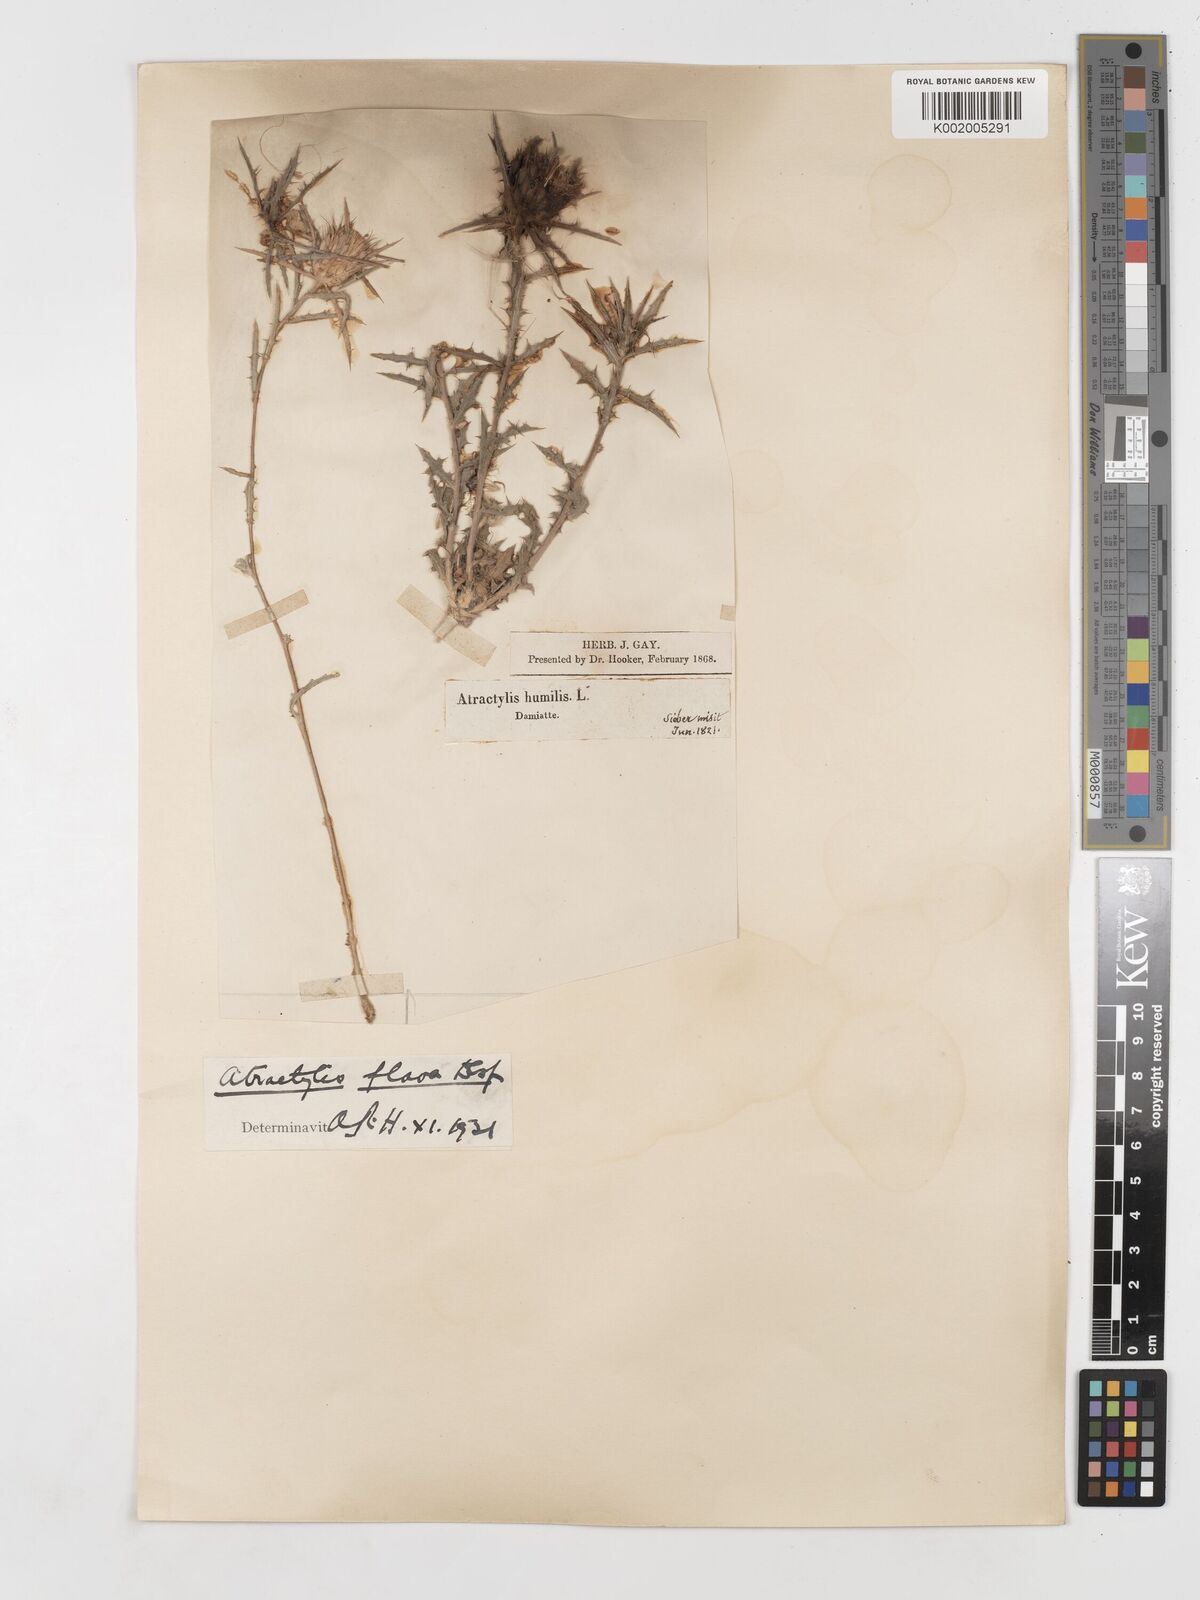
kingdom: Plantae
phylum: Tracheophyta
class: Magnoliopsida
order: Asterales
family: Asteraceae
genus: Atractylis
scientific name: Atractylis carduus
